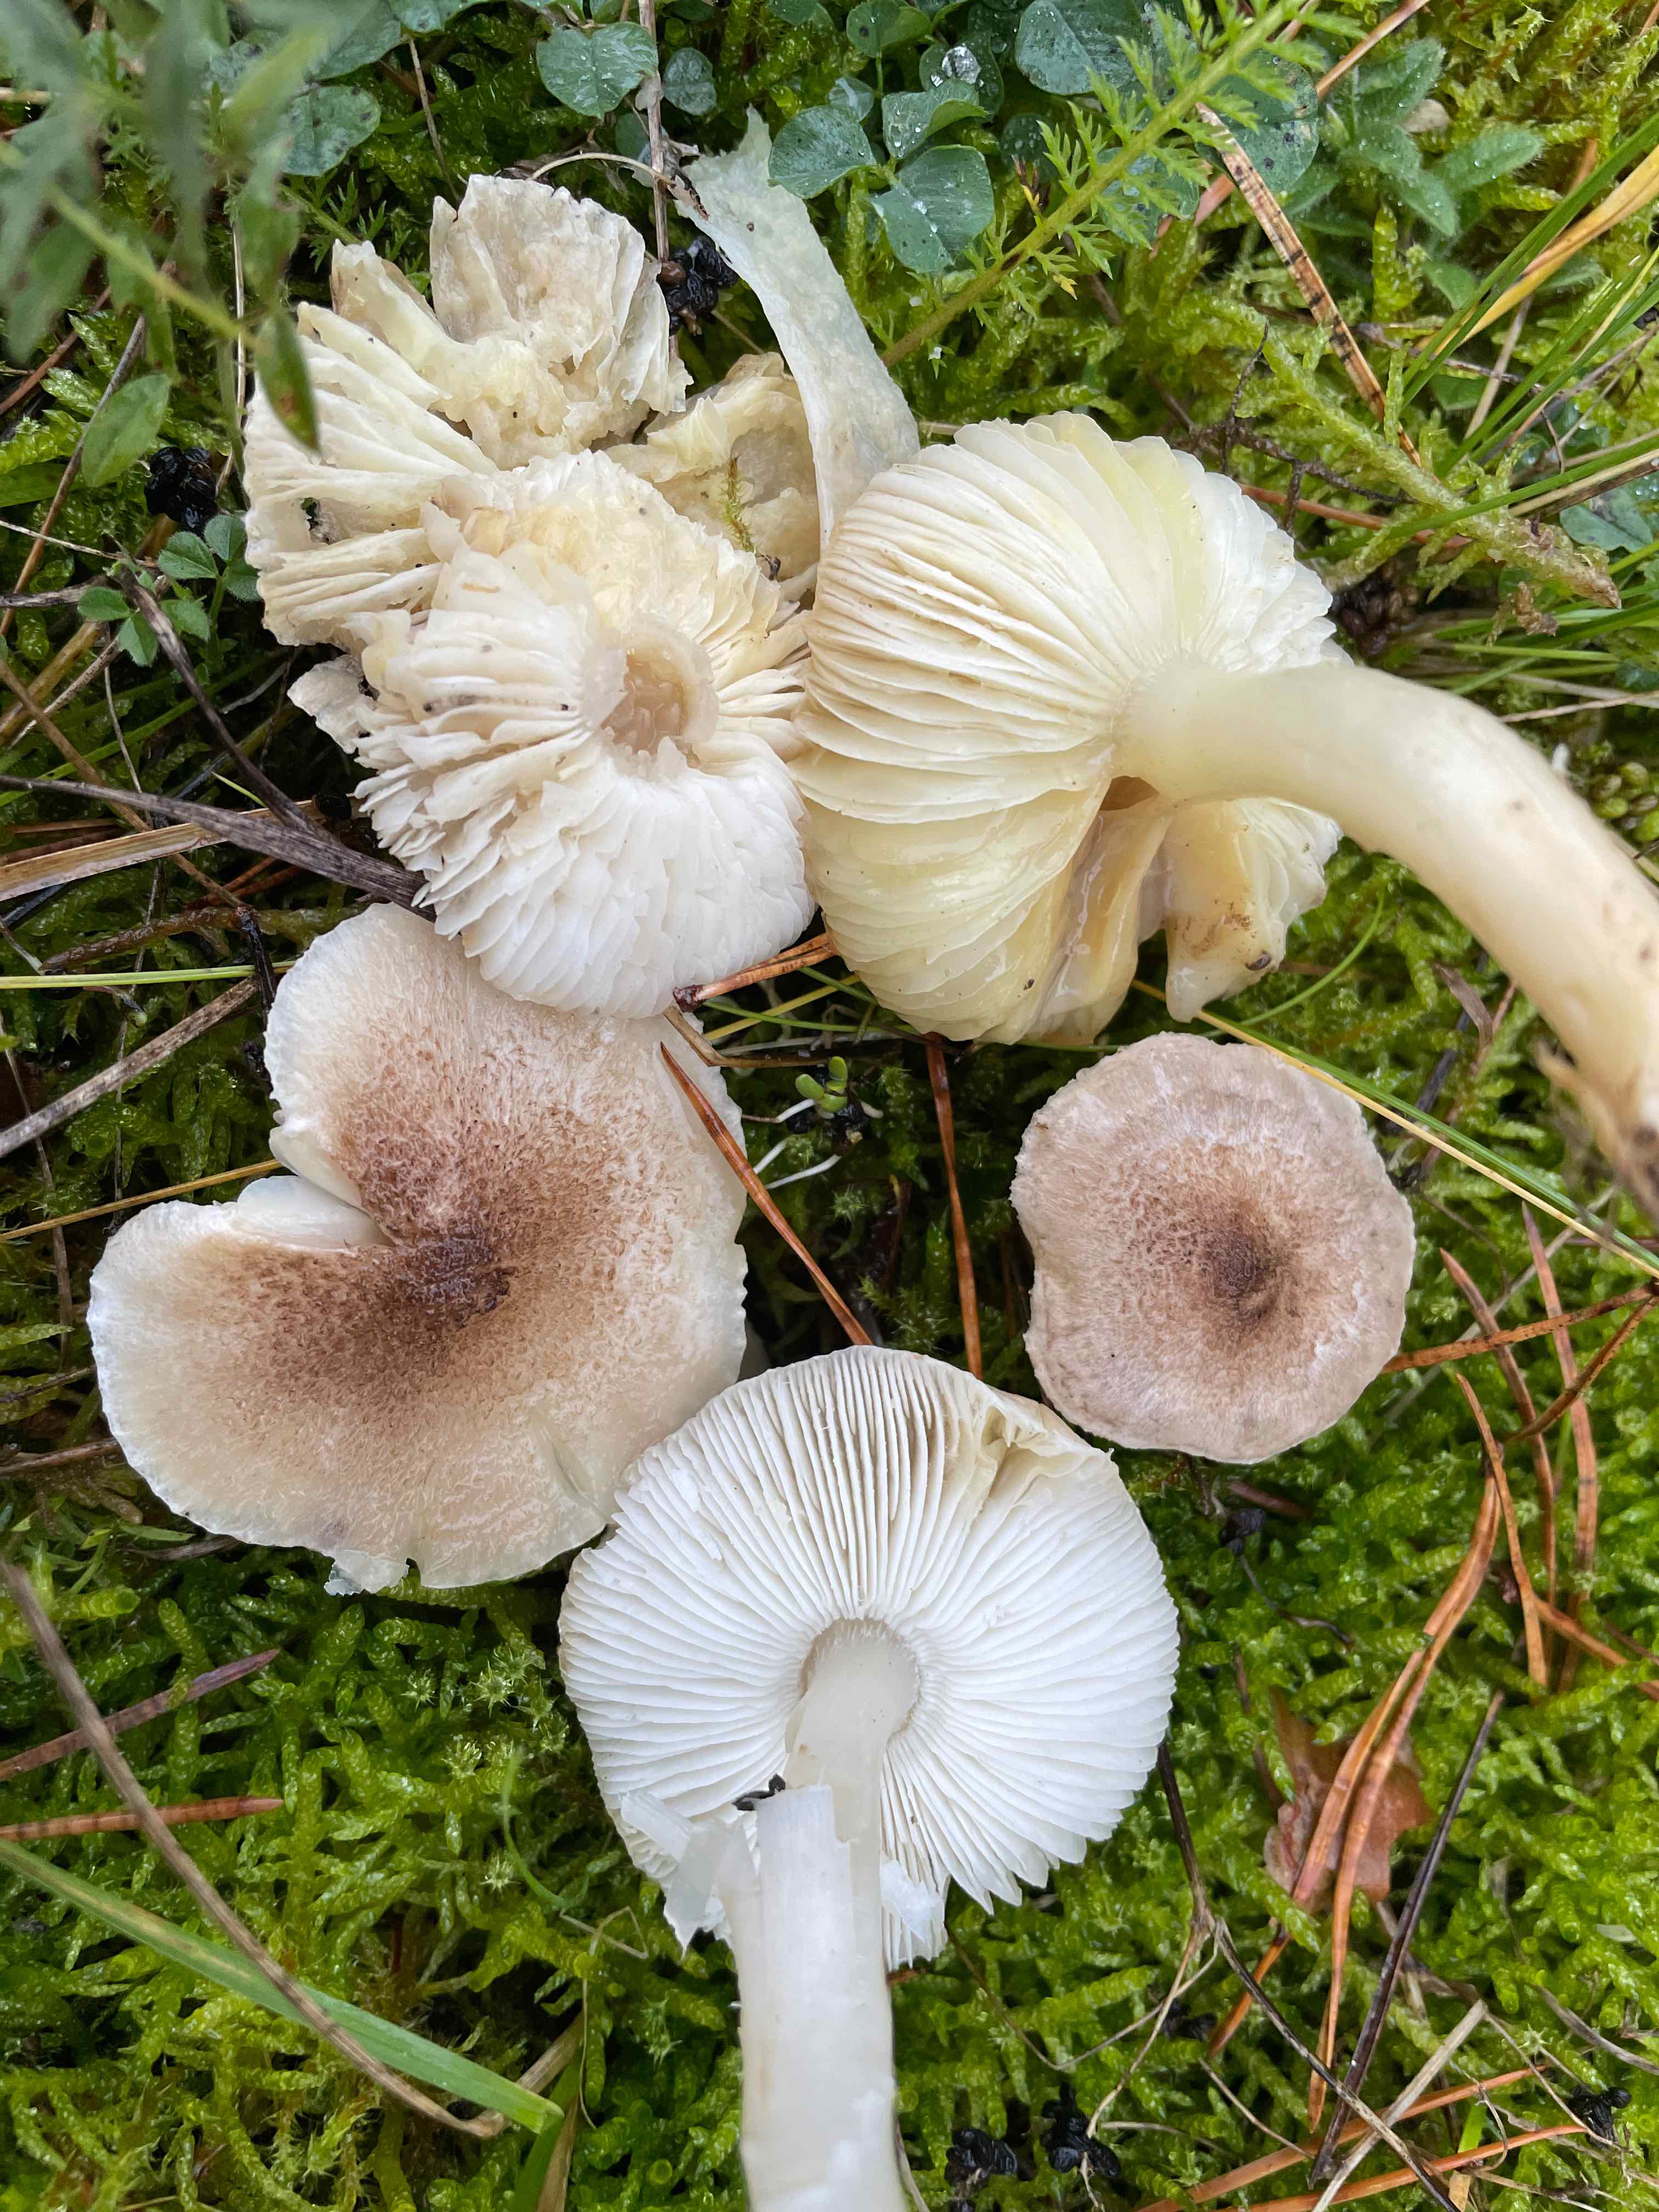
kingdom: Fungi
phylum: Basidiomycota
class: Agaricomycetes
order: Agaricales
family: Tricholomataceae
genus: Tricholoma
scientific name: Tricholoma scalpturatum
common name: gulplettet ridderhat
